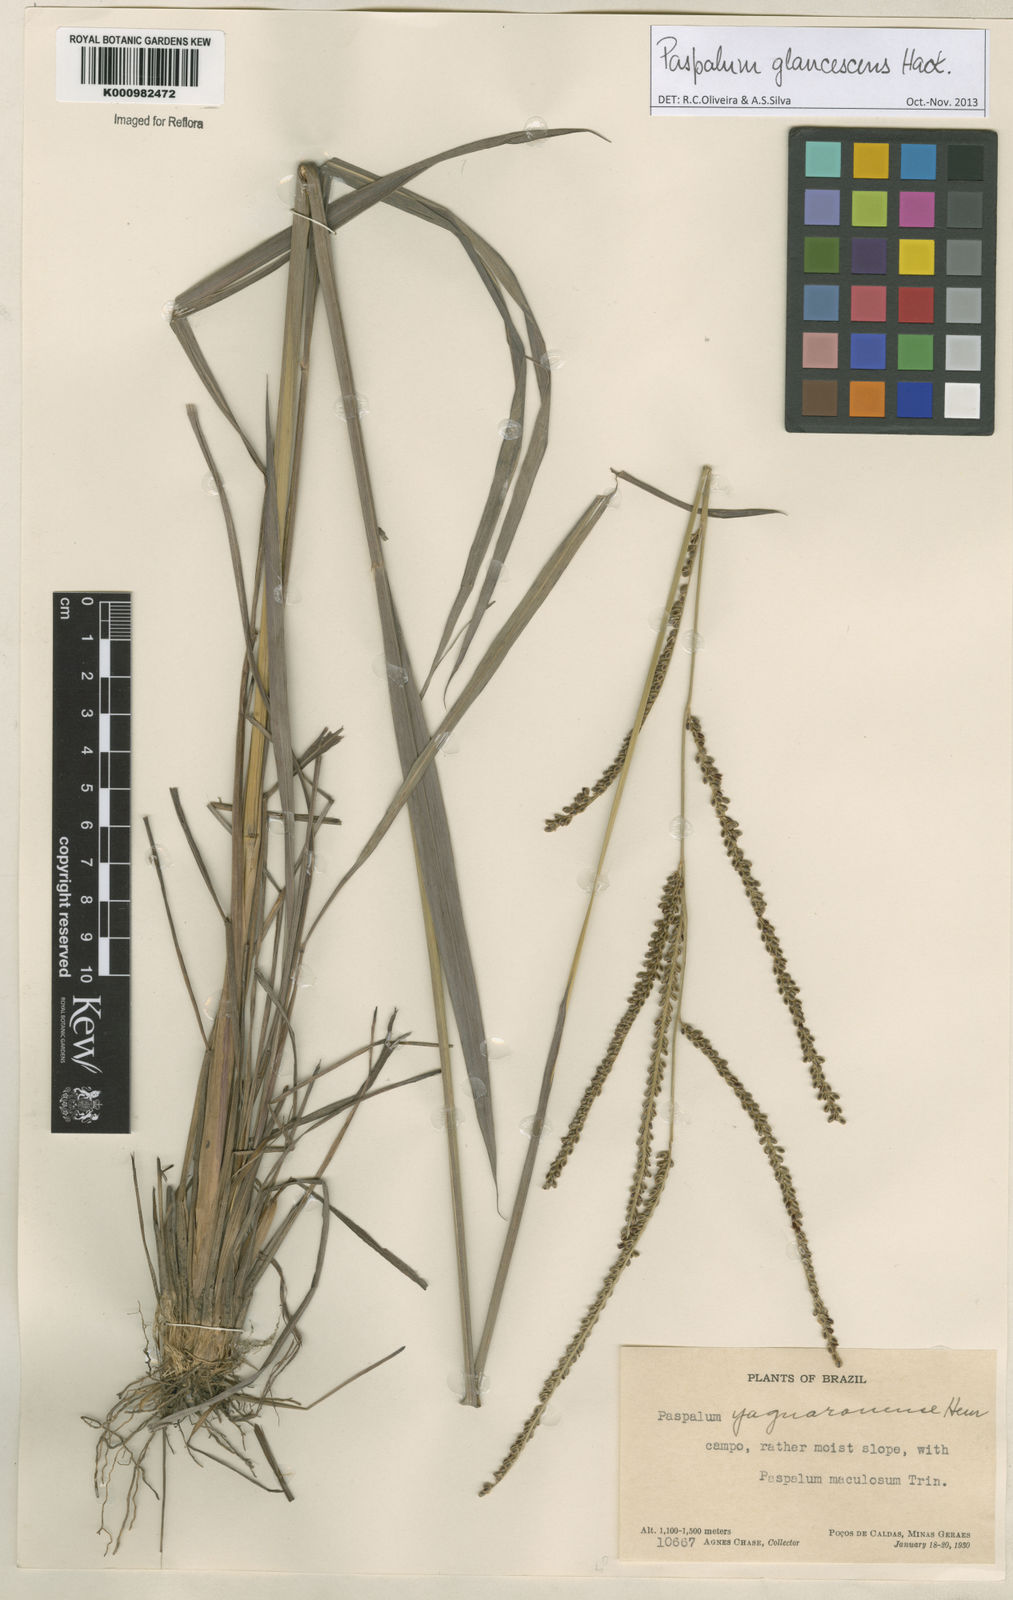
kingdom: Plantae
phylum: Tracheophyta
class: Liliopsida
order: Poales
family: Poaceae
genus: Paspalum
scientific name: Paspalum glaucescens
